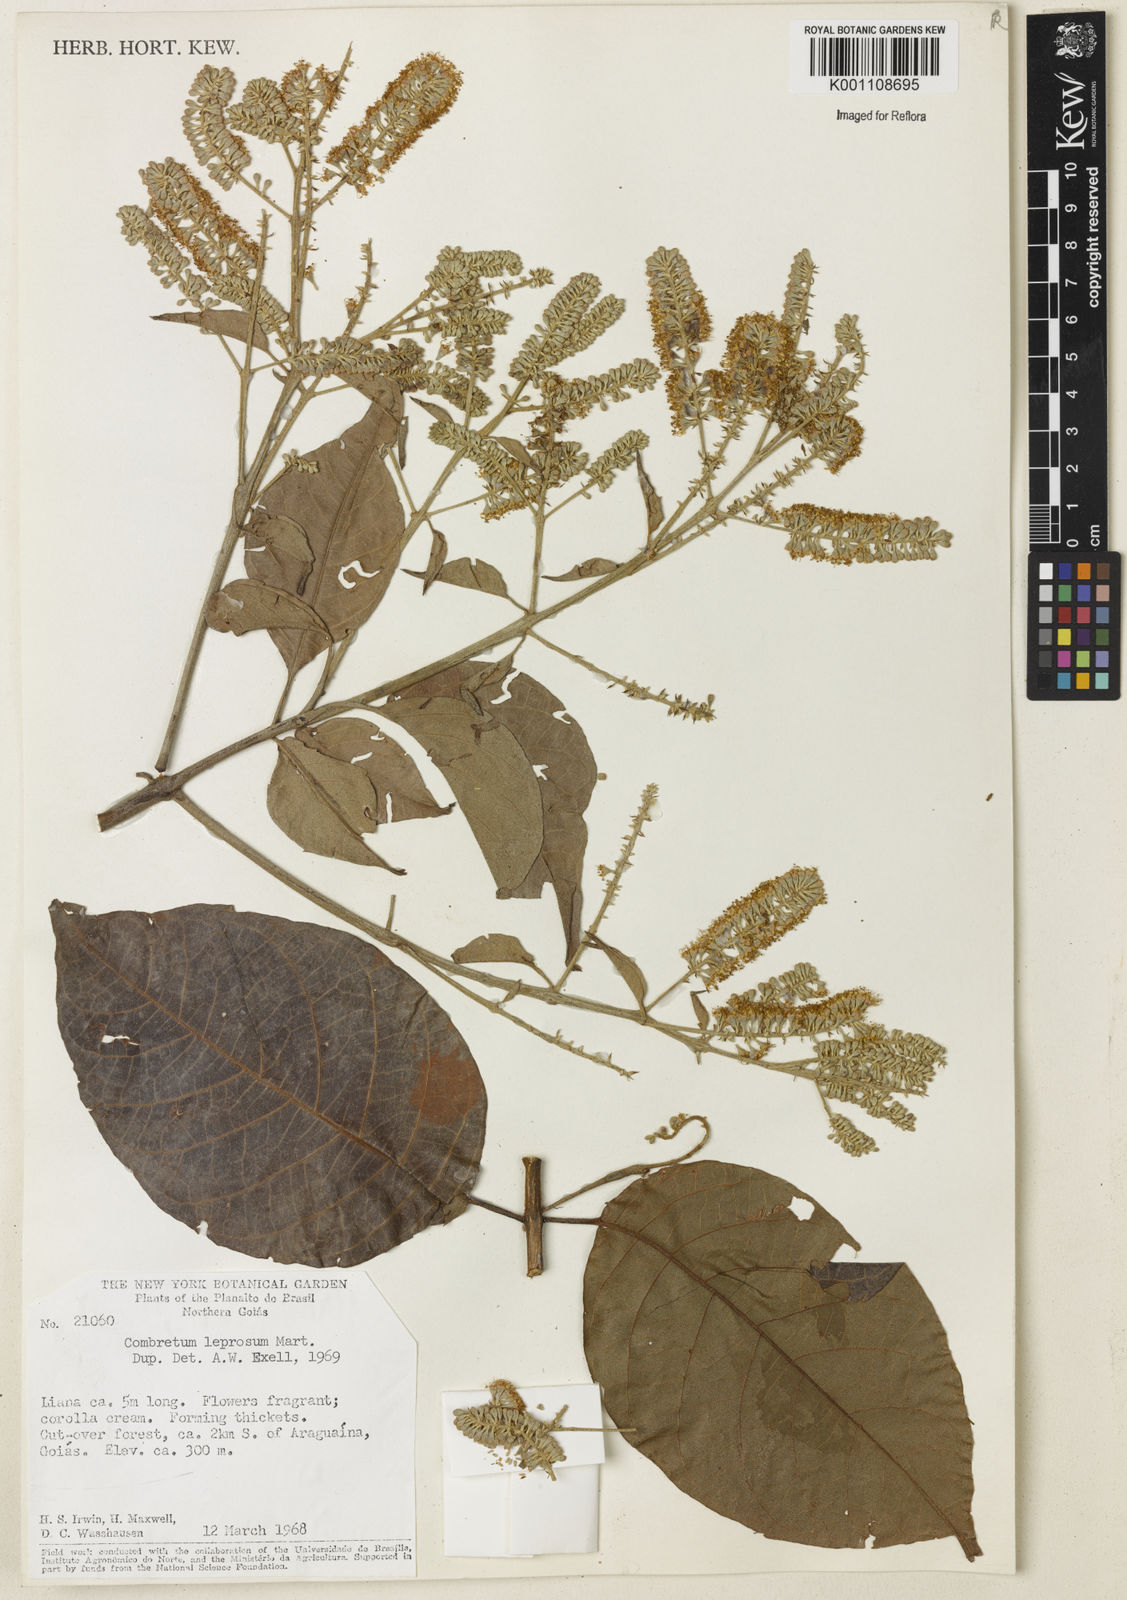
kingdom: Plantae
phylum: Tracheophyta
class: Magnoliopsida
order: Myrtales
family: Combretaceae
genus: Combretum
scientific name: Combretum leprosum
